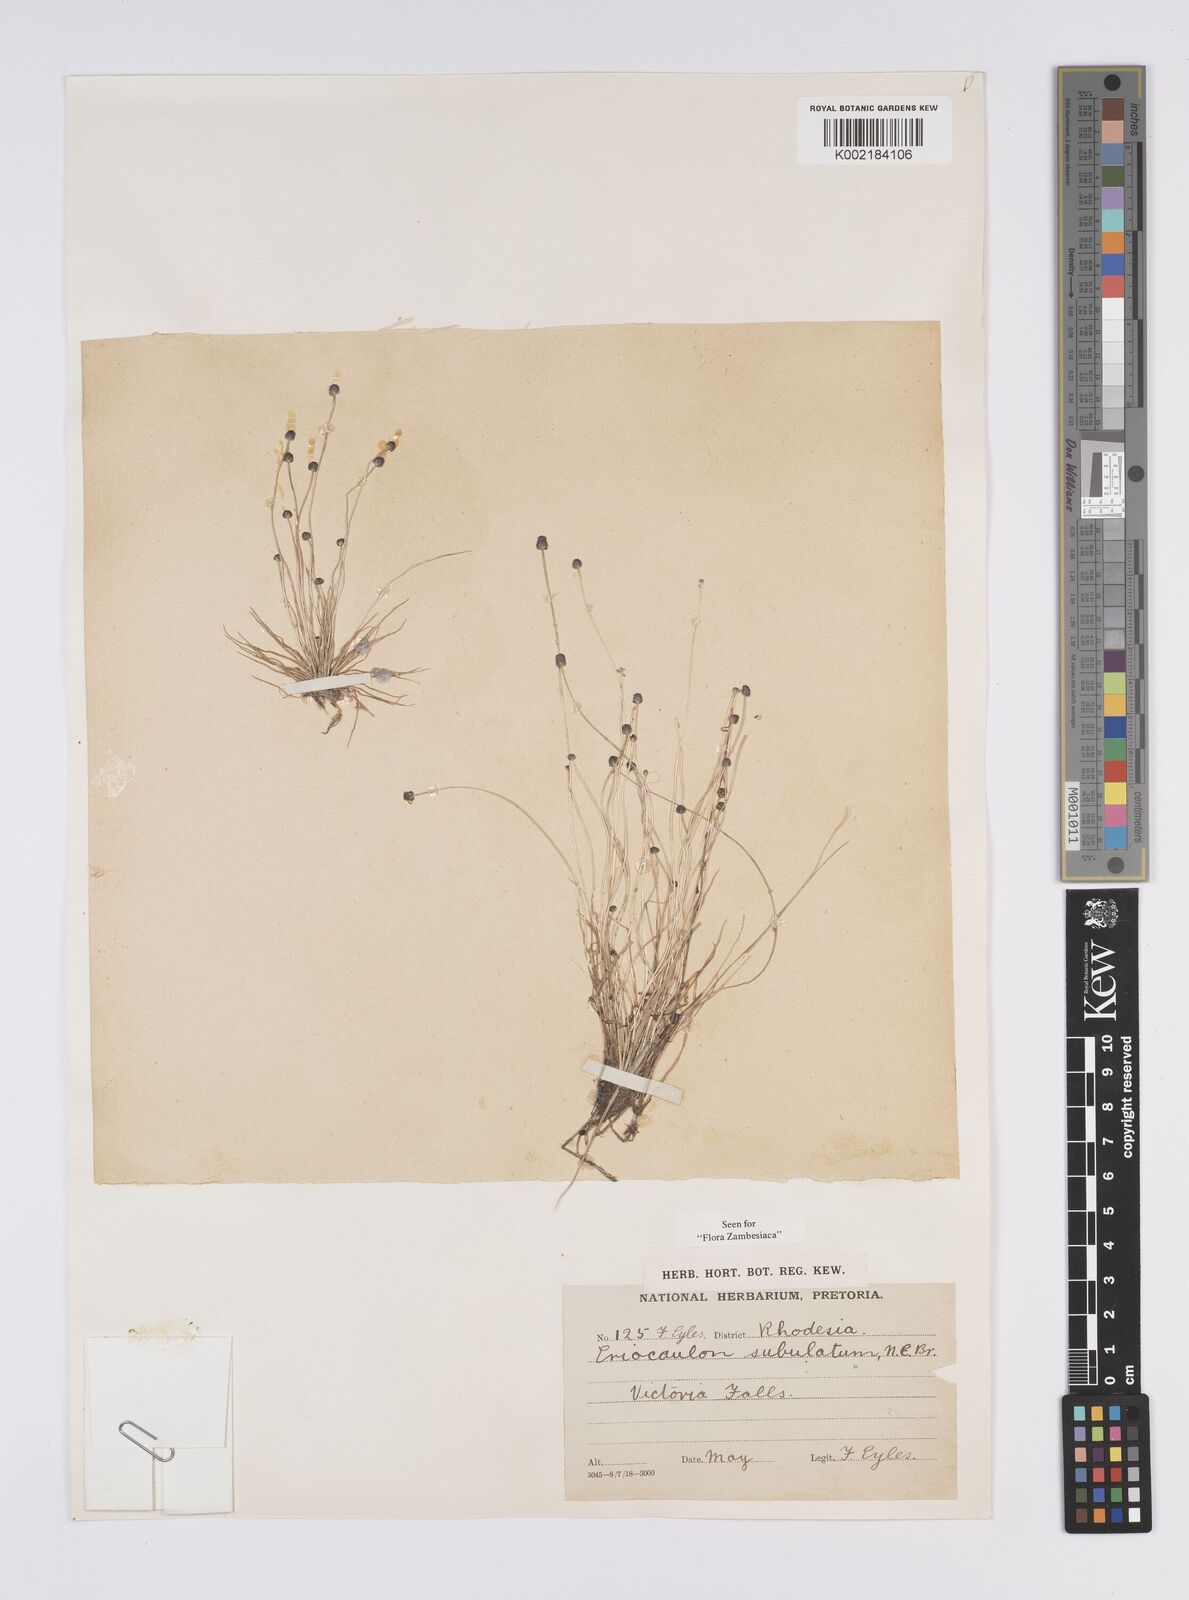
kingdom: Plantae
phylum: Tracheophyta
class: Liliopsida
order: Poales
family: Eriocaulaceae
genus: Eriocaulon
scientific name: Eriocaulon abyssinicum
